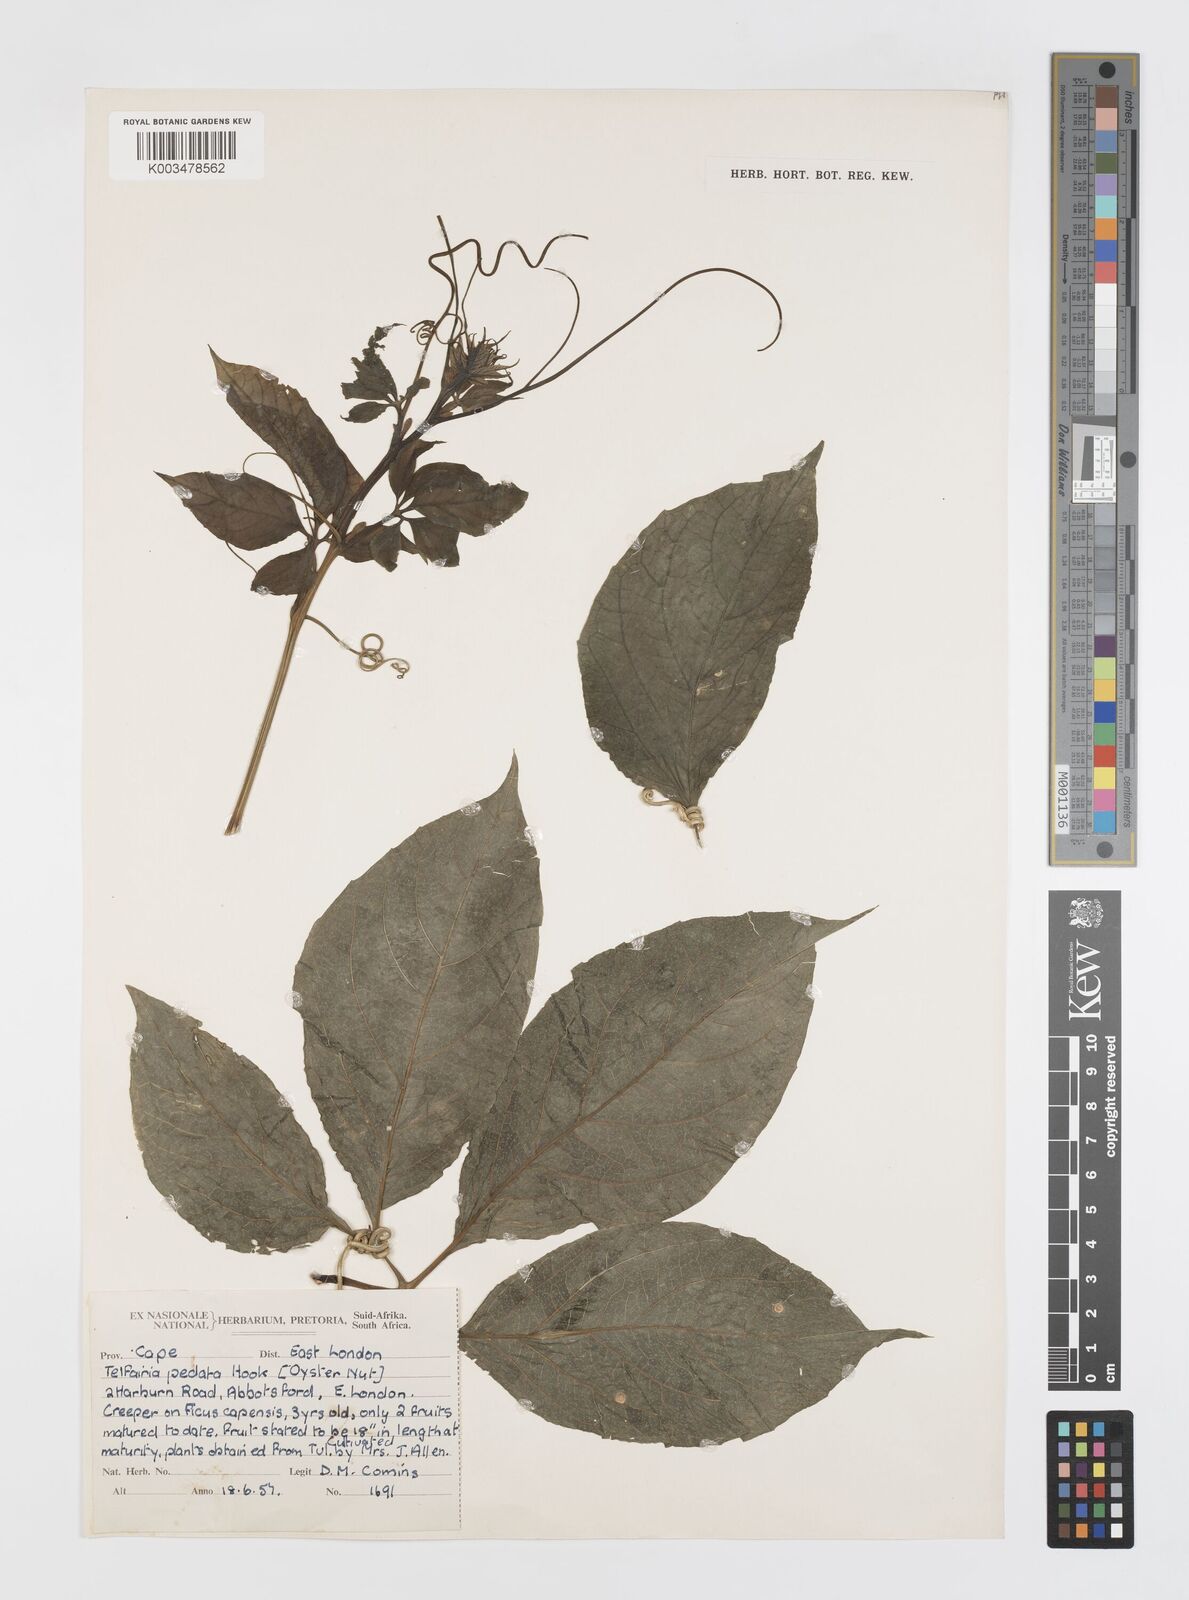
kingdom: Plantae
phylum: Tracheophyta
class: Magnoliopsida
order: Cucurbitales
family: Cucurbitaceae
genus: Telfairia
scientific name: Telfairia pedata
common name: Zanzibar oilvine
